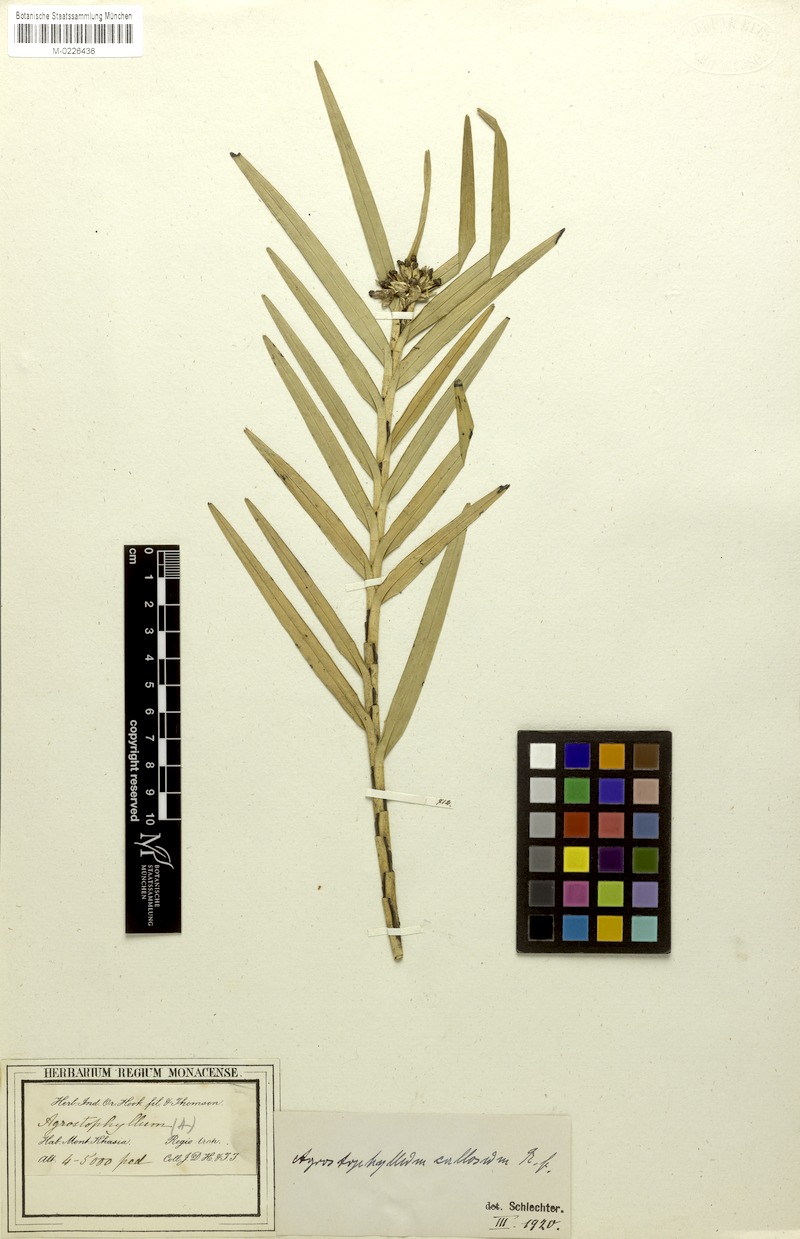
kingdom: Plantae
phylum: Tracheophyta
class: Liliopsida
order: Asparagales
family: Orchidaceae
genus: Agrostophyllum
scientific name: Agrostophyllum callosum
